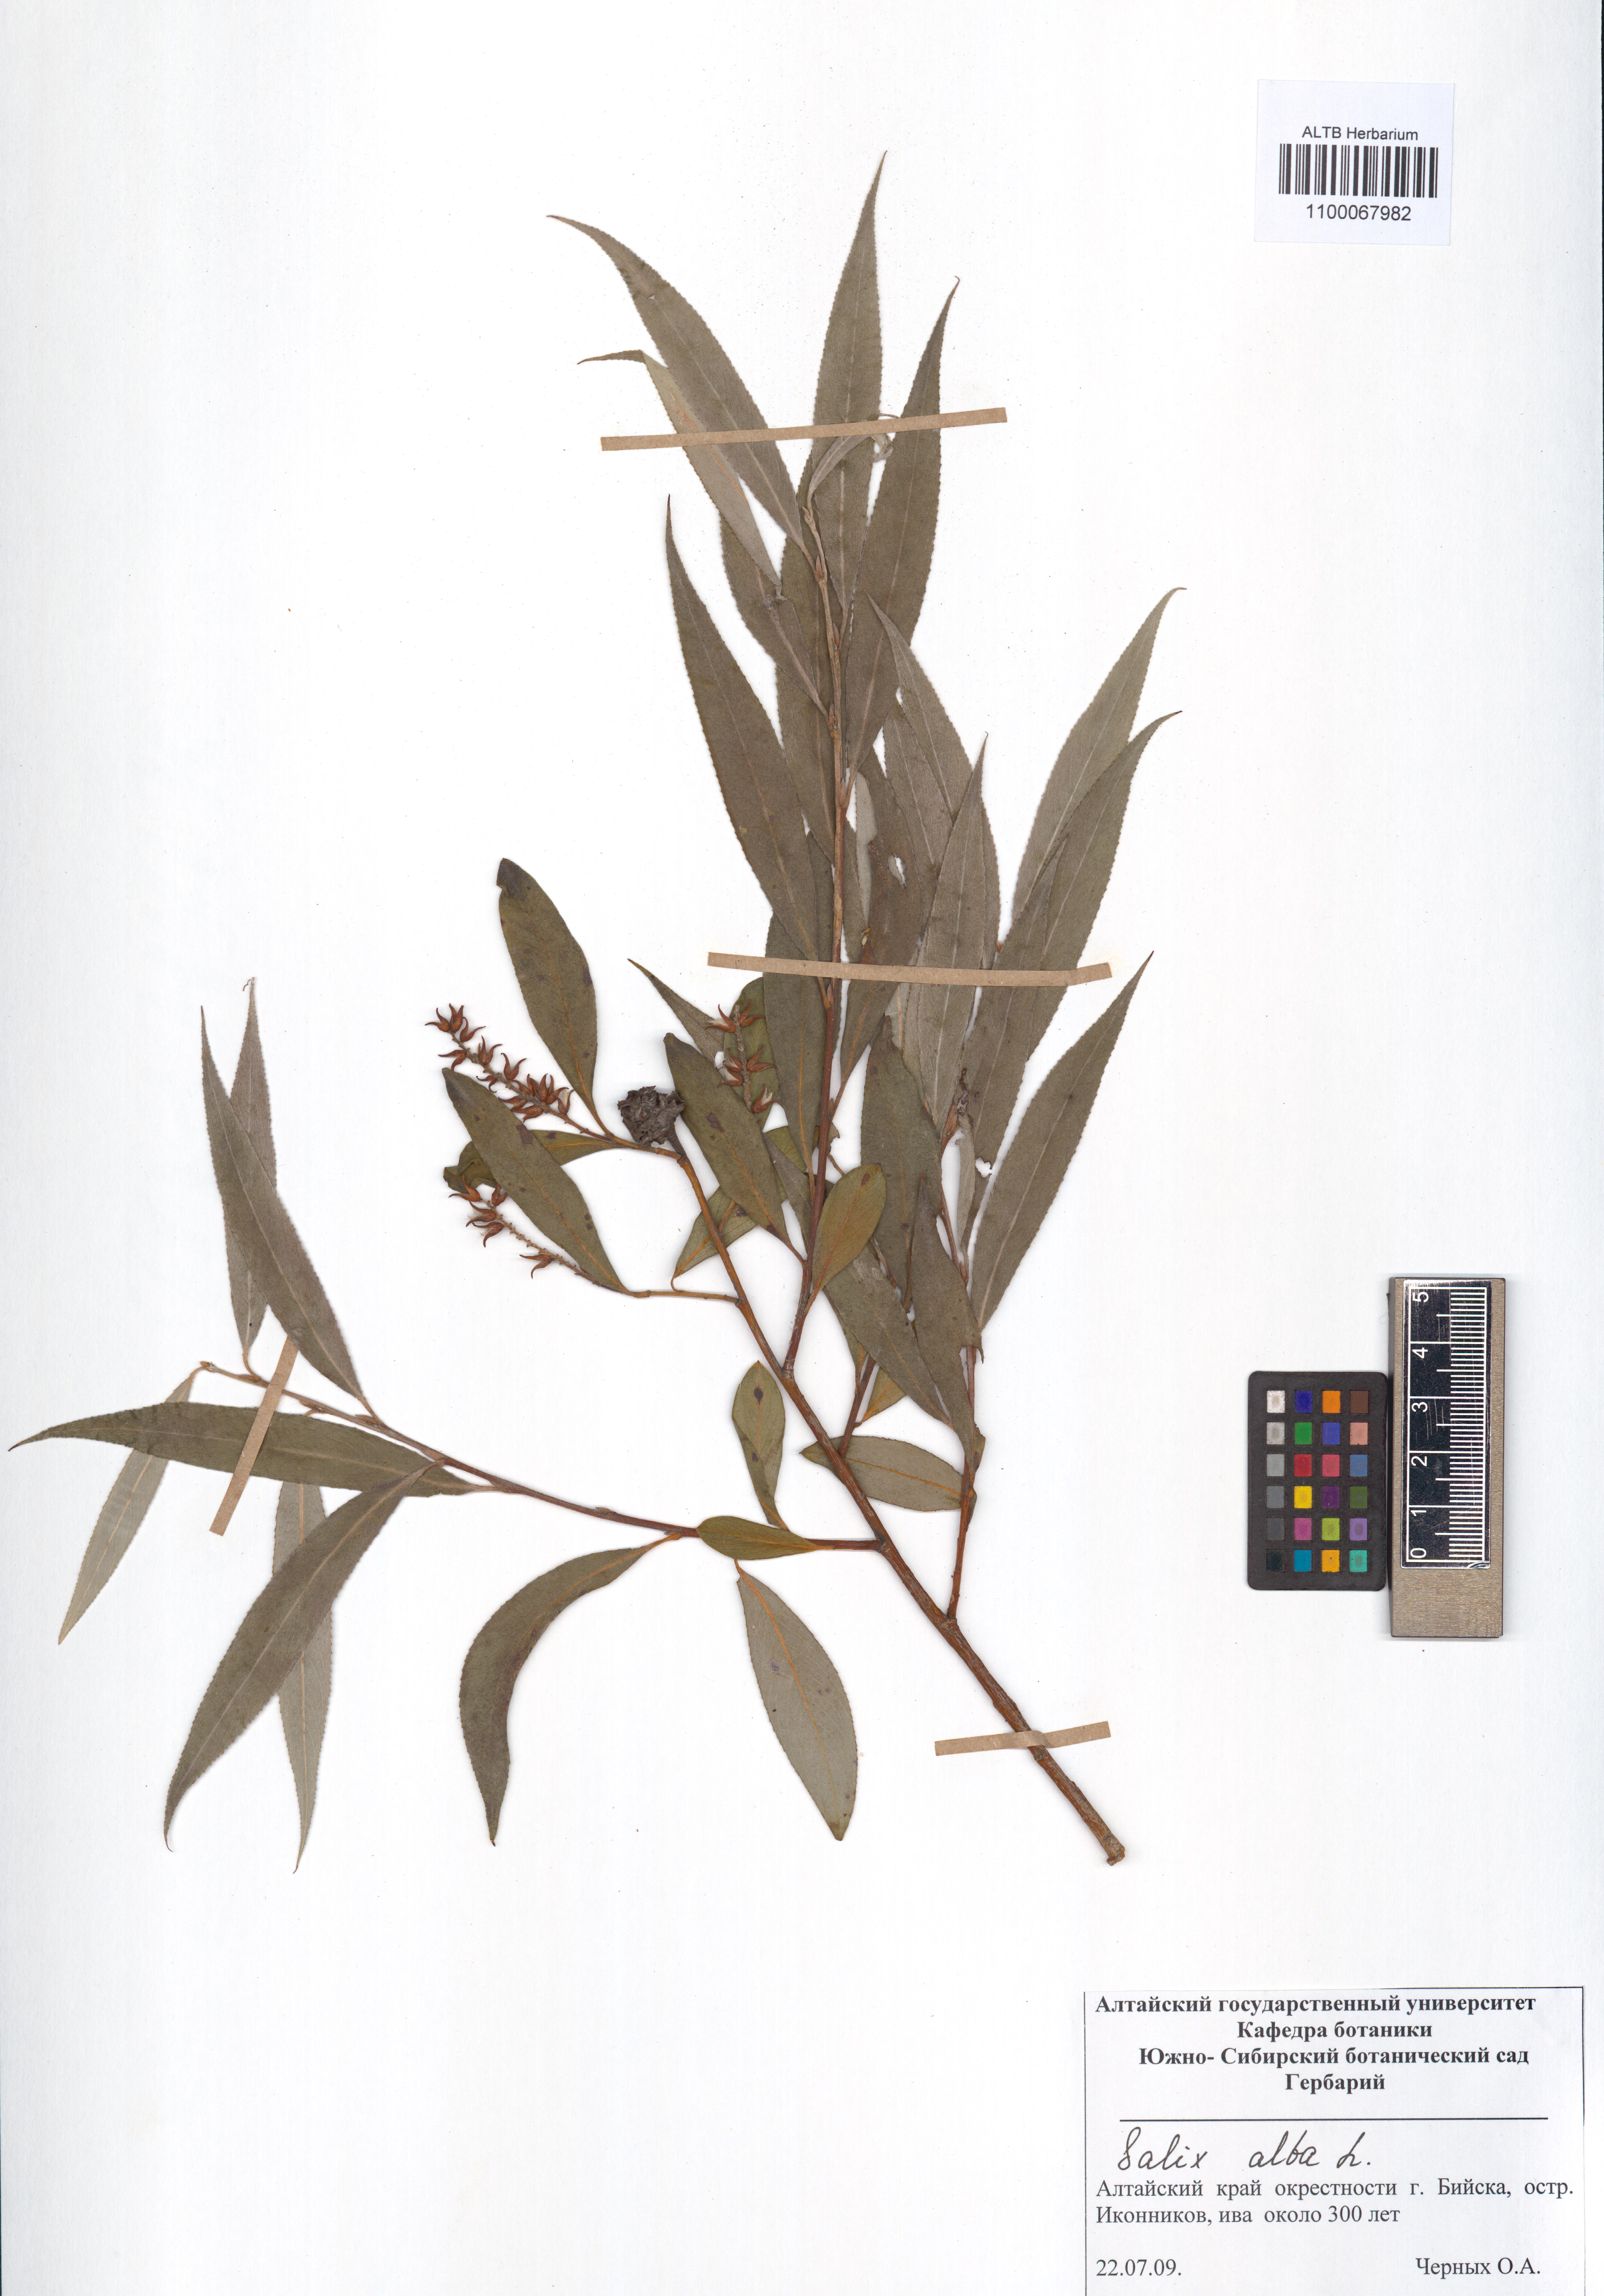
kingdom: Plantae
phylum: Tracheophyta
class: Magnoliopsida
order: Malpighiales
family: Salicaceae
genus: Salix
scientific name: Salix alba
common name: White willow
